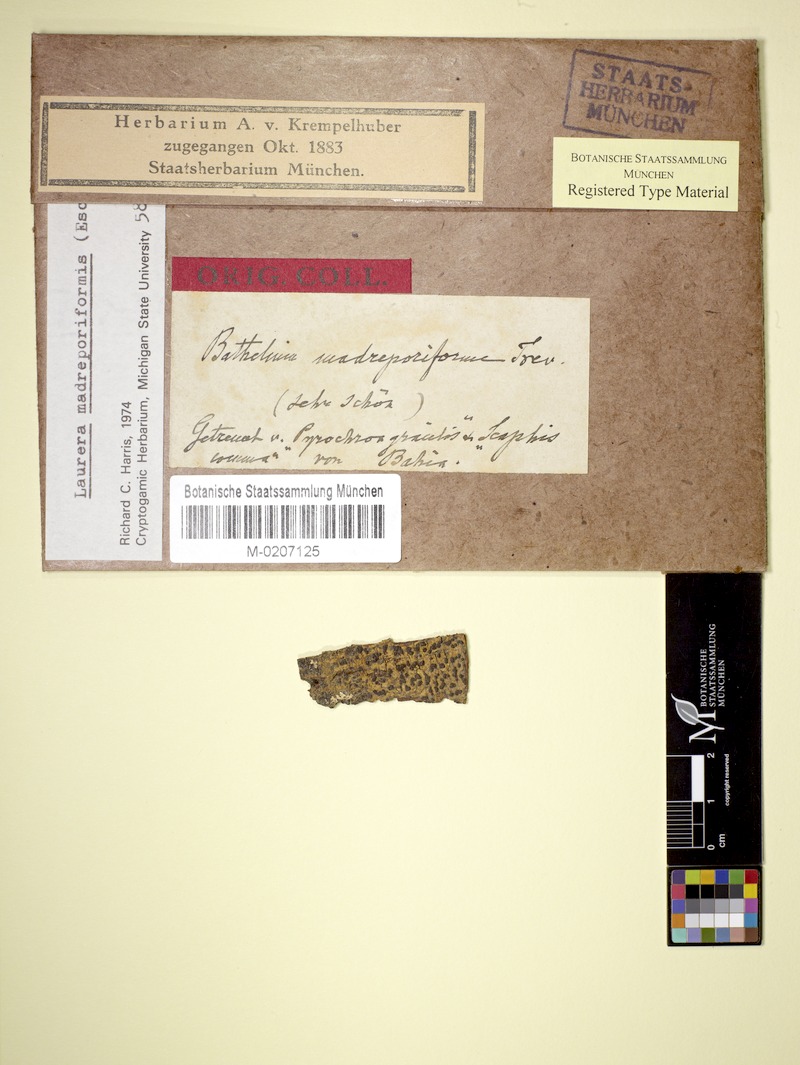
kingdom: Fungi
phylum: Ascomycota
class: Dothideomycetes
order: Trypetheliales
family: Trypetheliaceae
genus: Bathelium
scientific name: Bathelium madreporiforme
